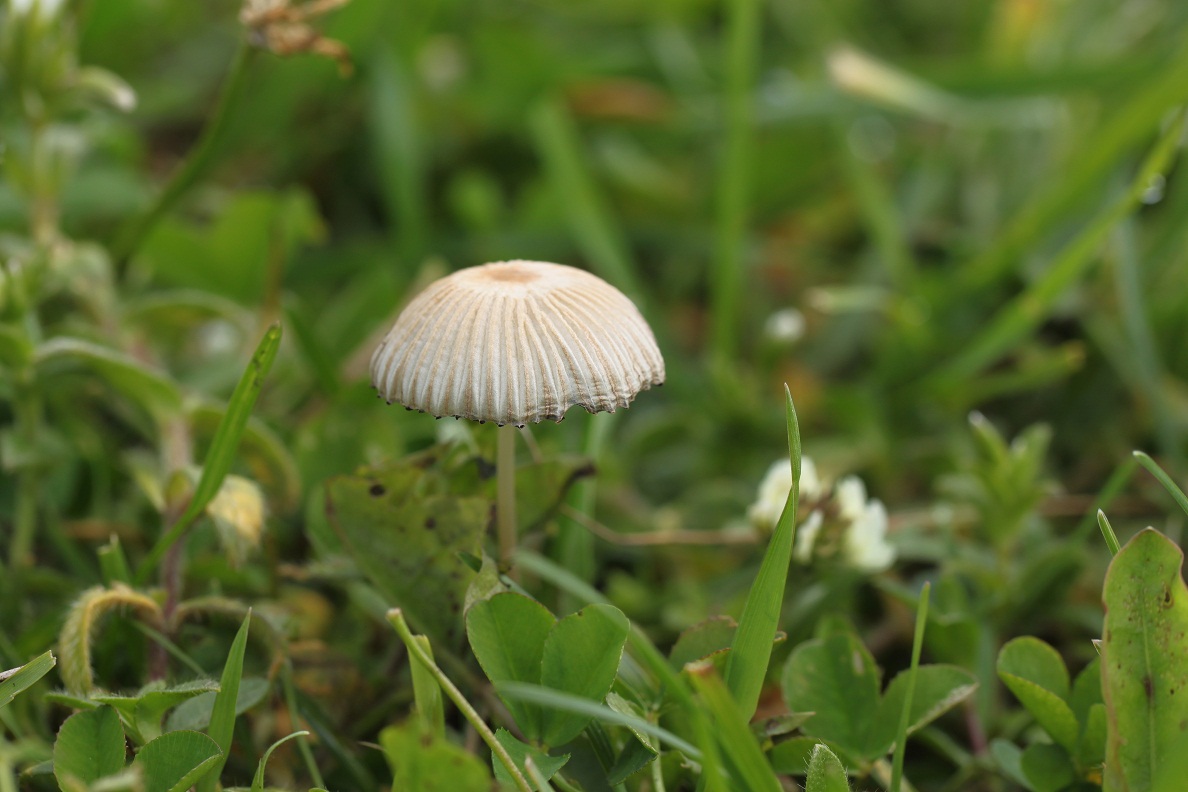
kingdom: Fungi
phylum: Basidiomycota
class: Agaricomycetes
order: Agaricales
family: Psathyrellaceae
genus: Parasola
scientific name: Parasola schroeteri
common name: bredsporet hjulhat
